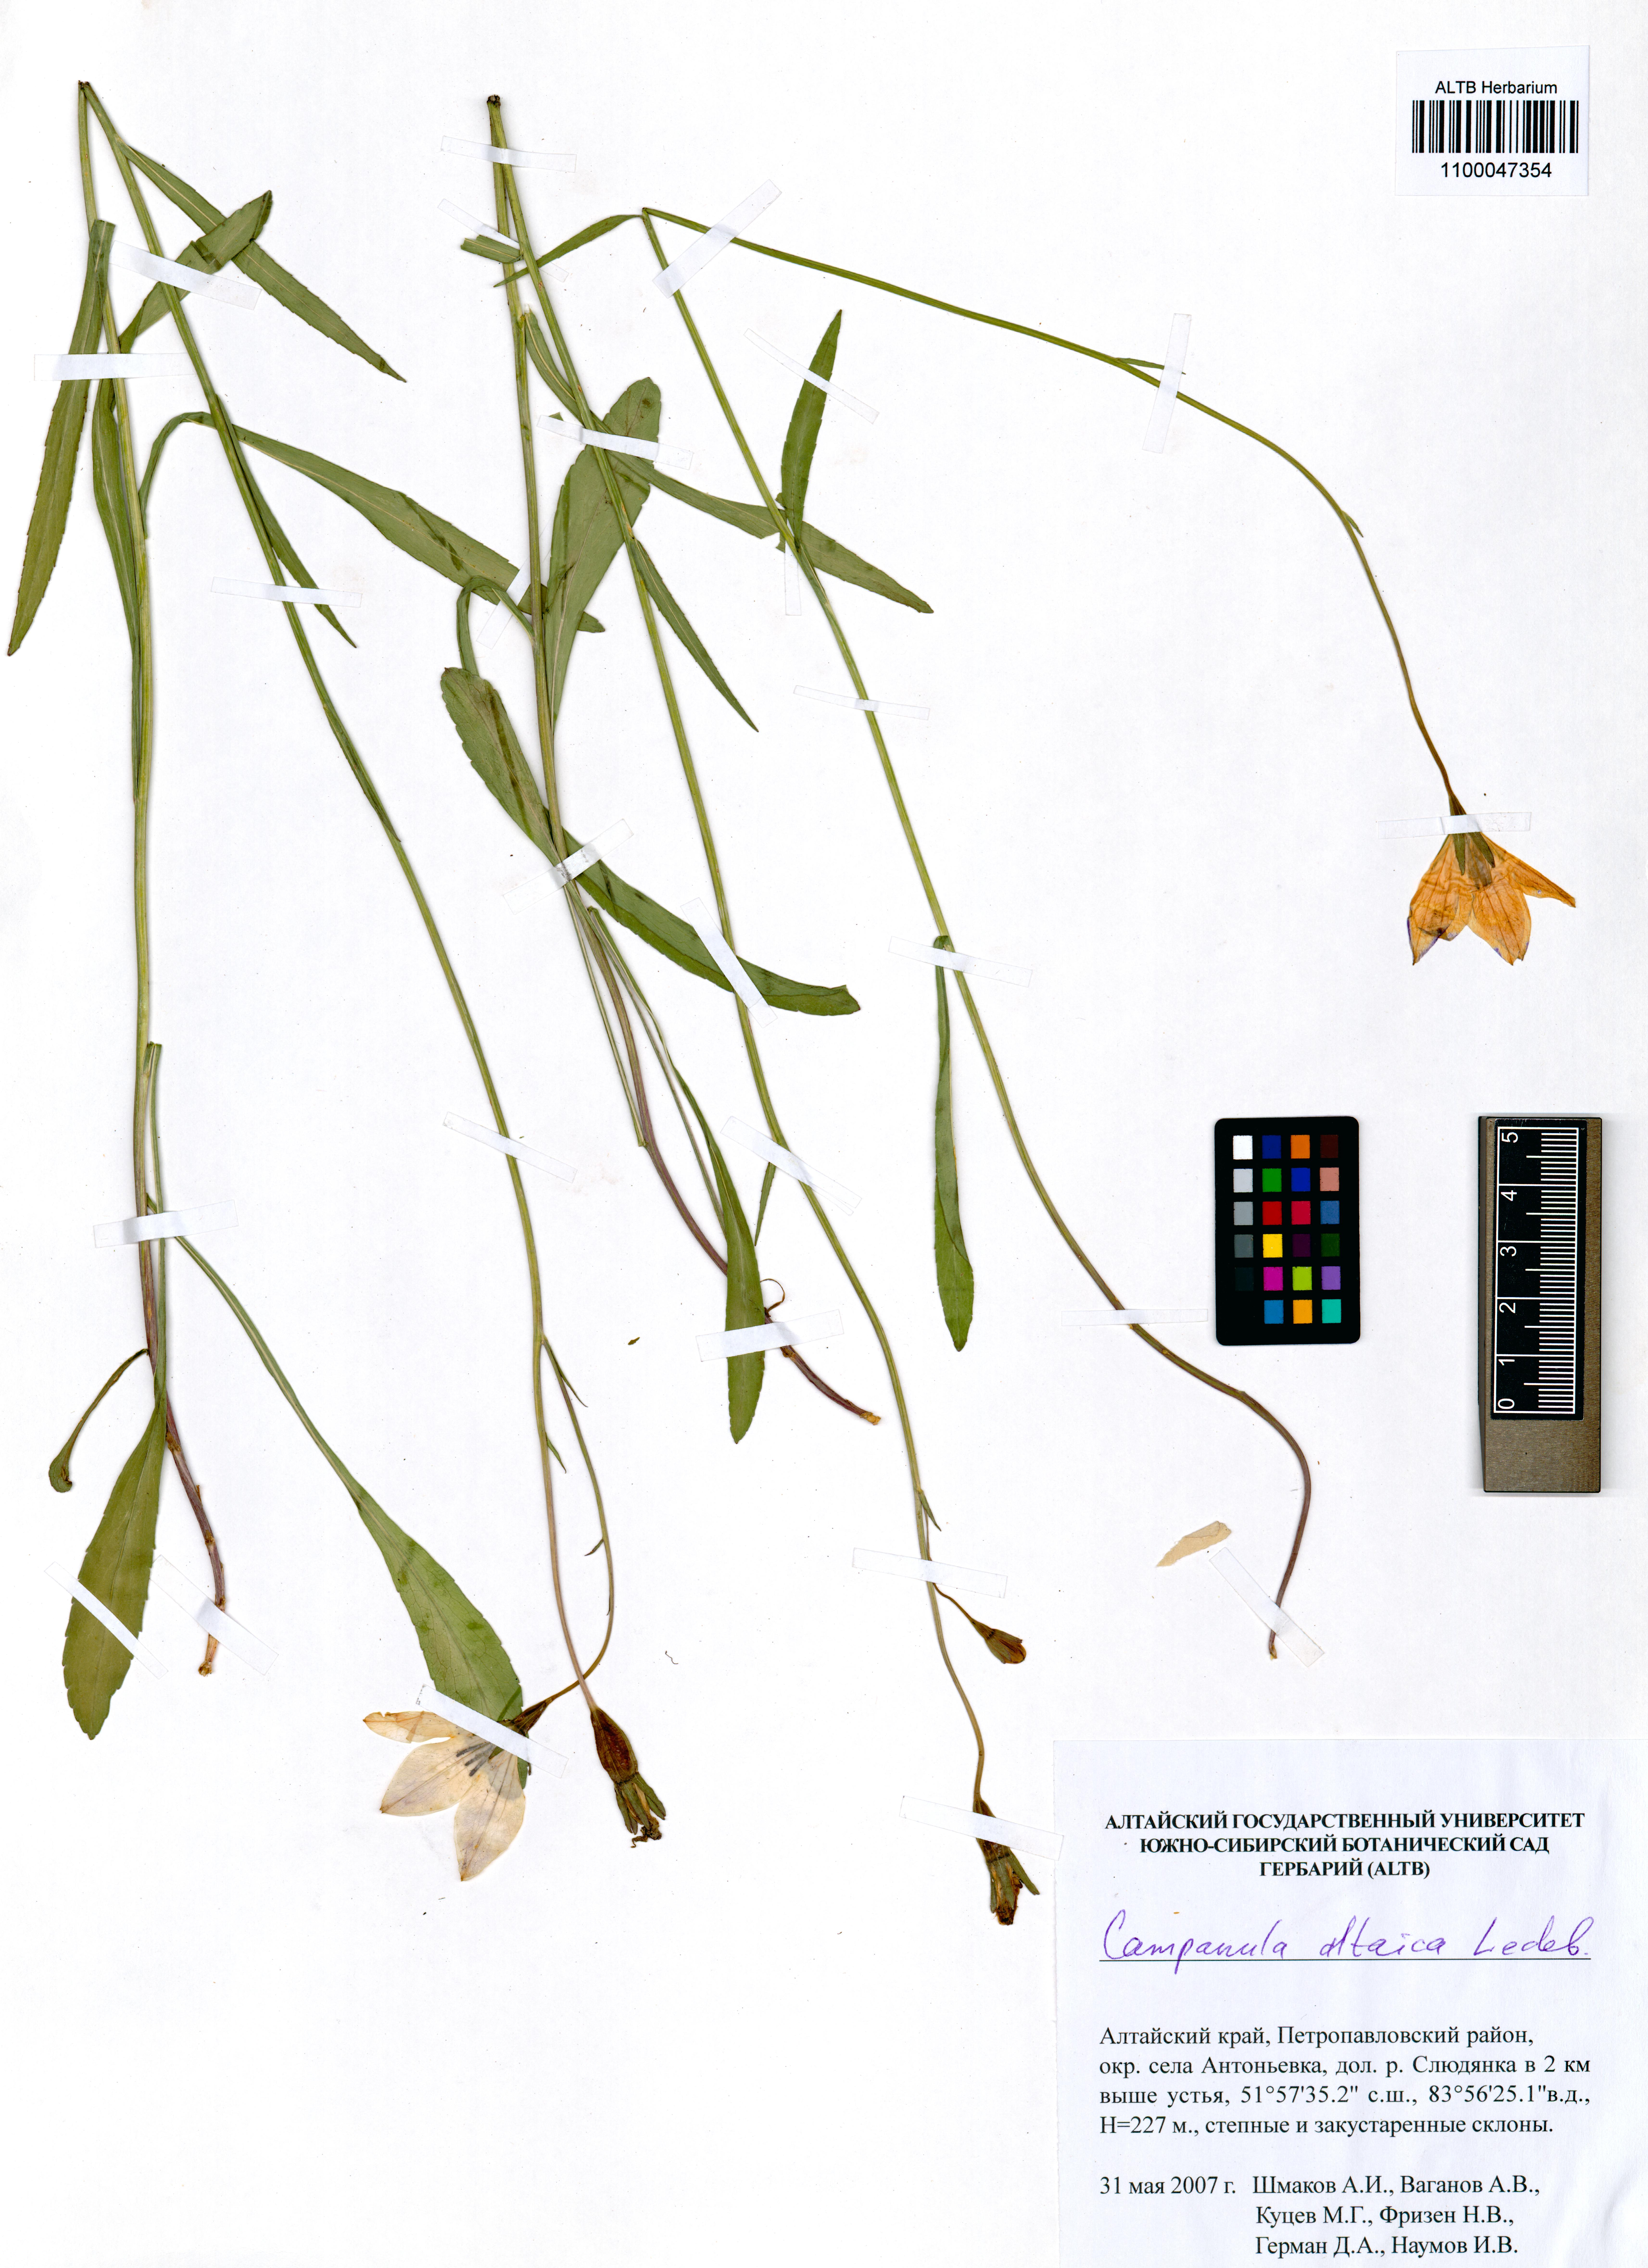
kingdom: Plantae
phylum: Tracheophyta
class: Magnoliopsida
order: Asterales
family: Campanulaceae
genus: Campanula
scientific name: Campanula stevenii
